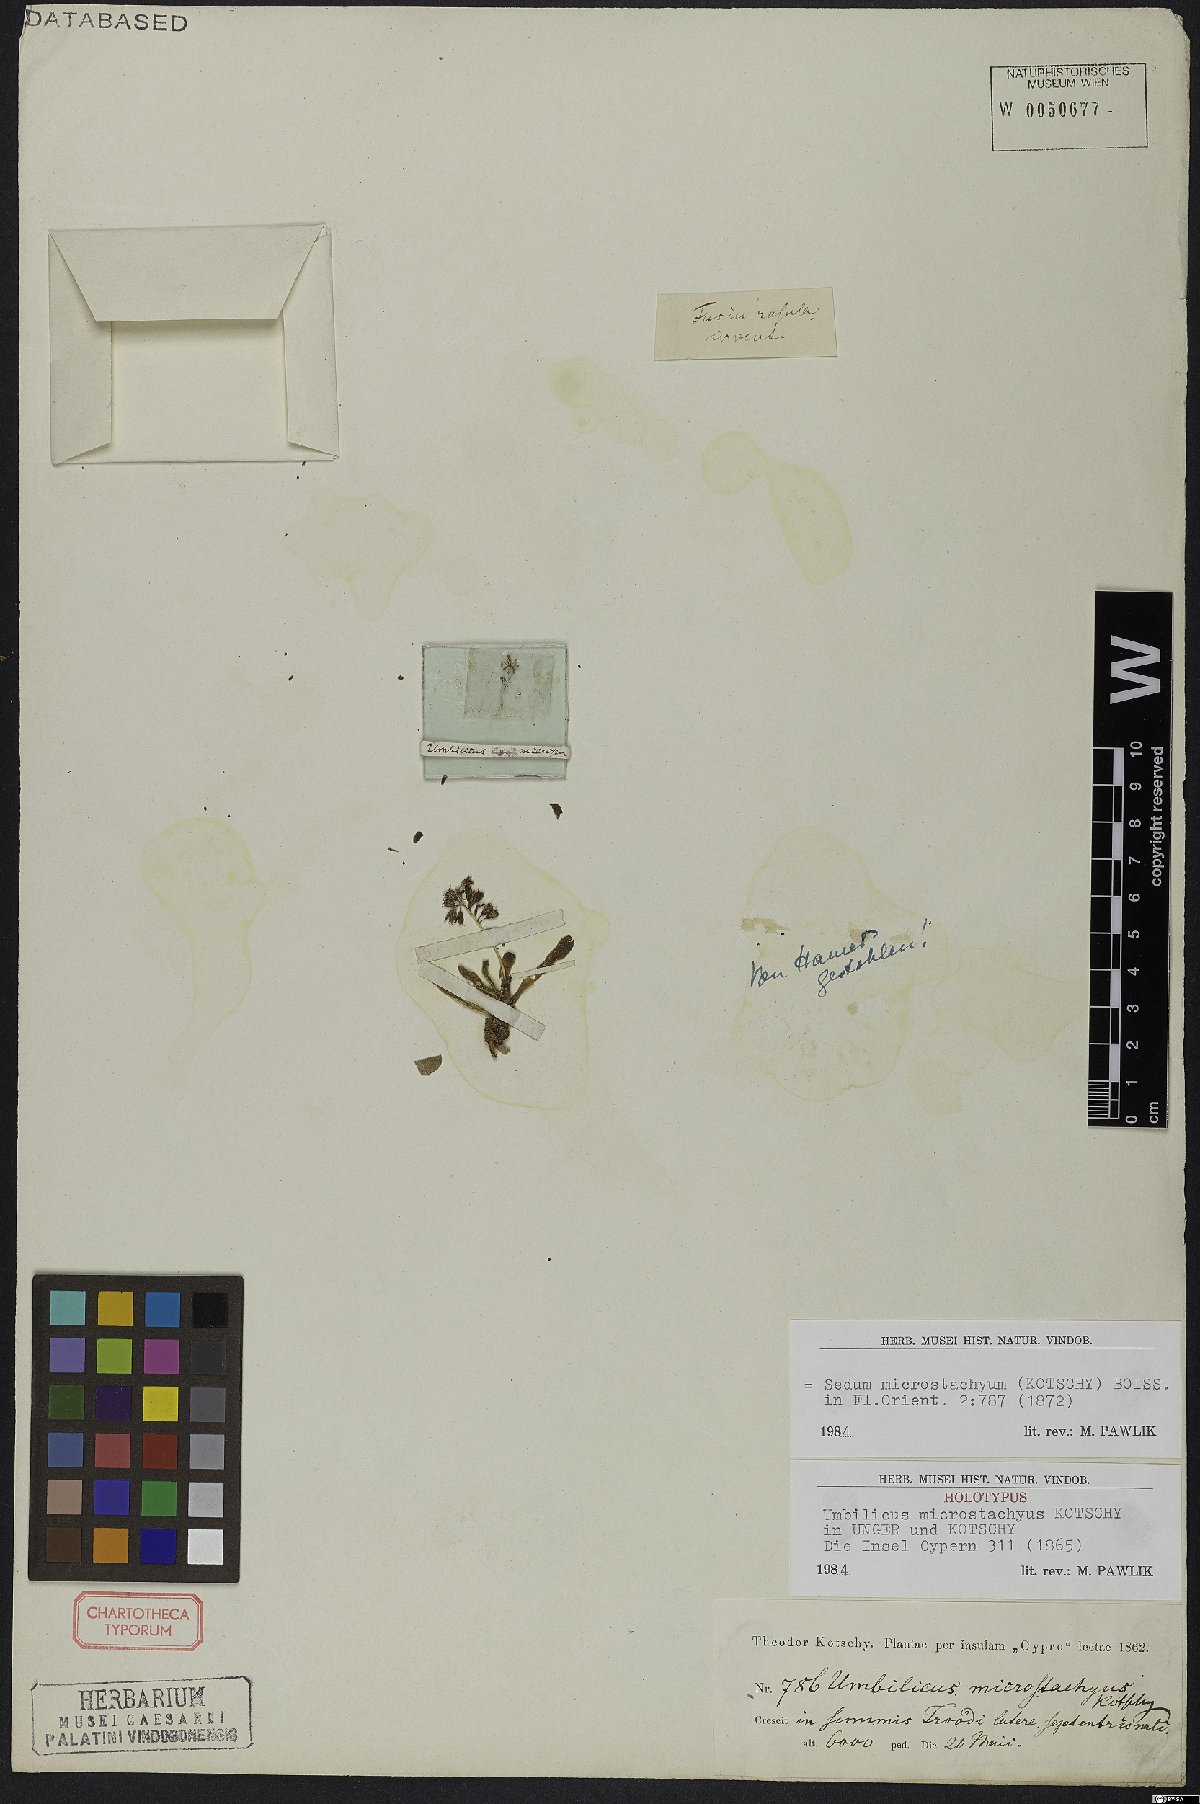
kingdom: Plantae
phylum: Tracheophyta
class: Magnoliopsida
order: Saxifragales
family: Crassulaceae
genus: Sedum
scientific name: Sedum microstachyum
